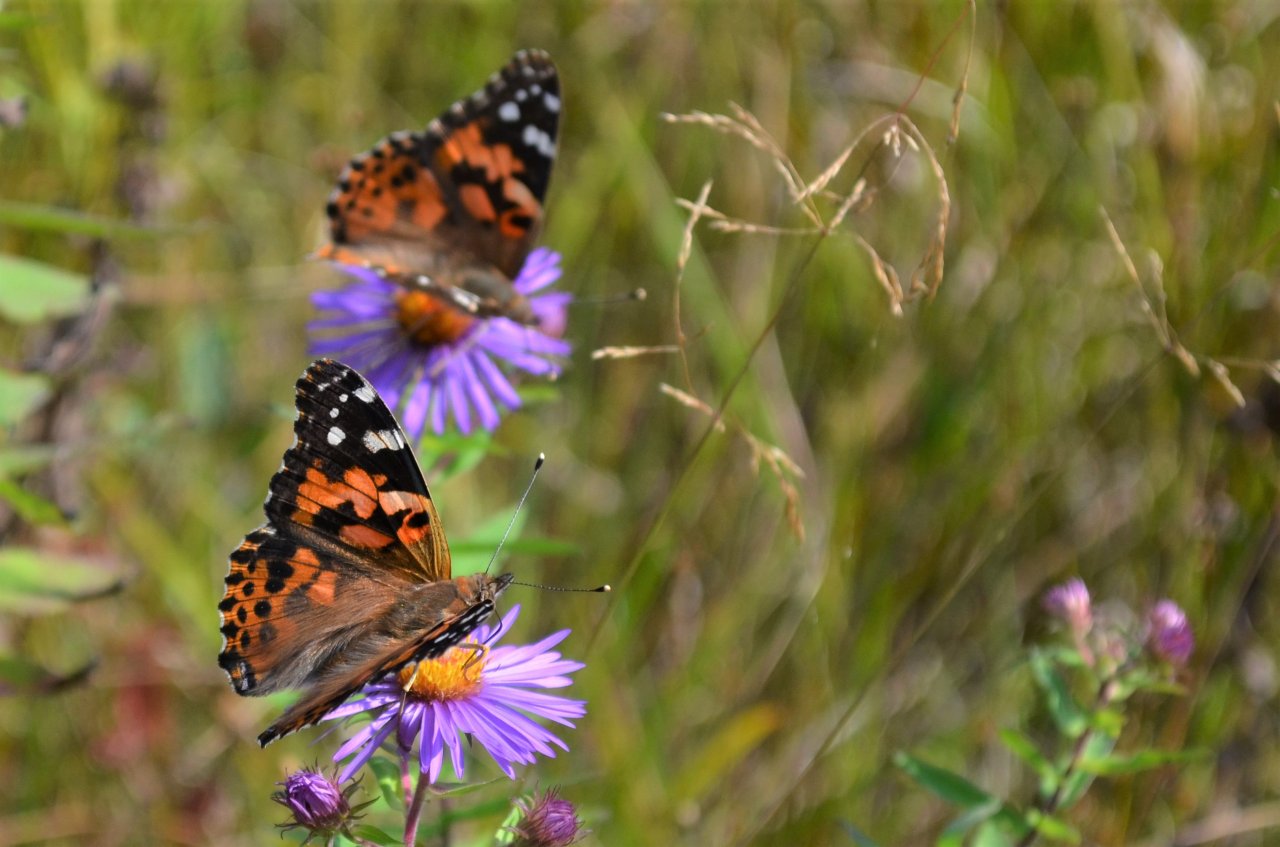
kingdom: Animalia
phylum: Arthropoda
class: Insecta
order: Lepidoptera
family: Nymphalidae
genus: Vanessa
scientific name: Vanessa cardui
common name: Painted Lady
